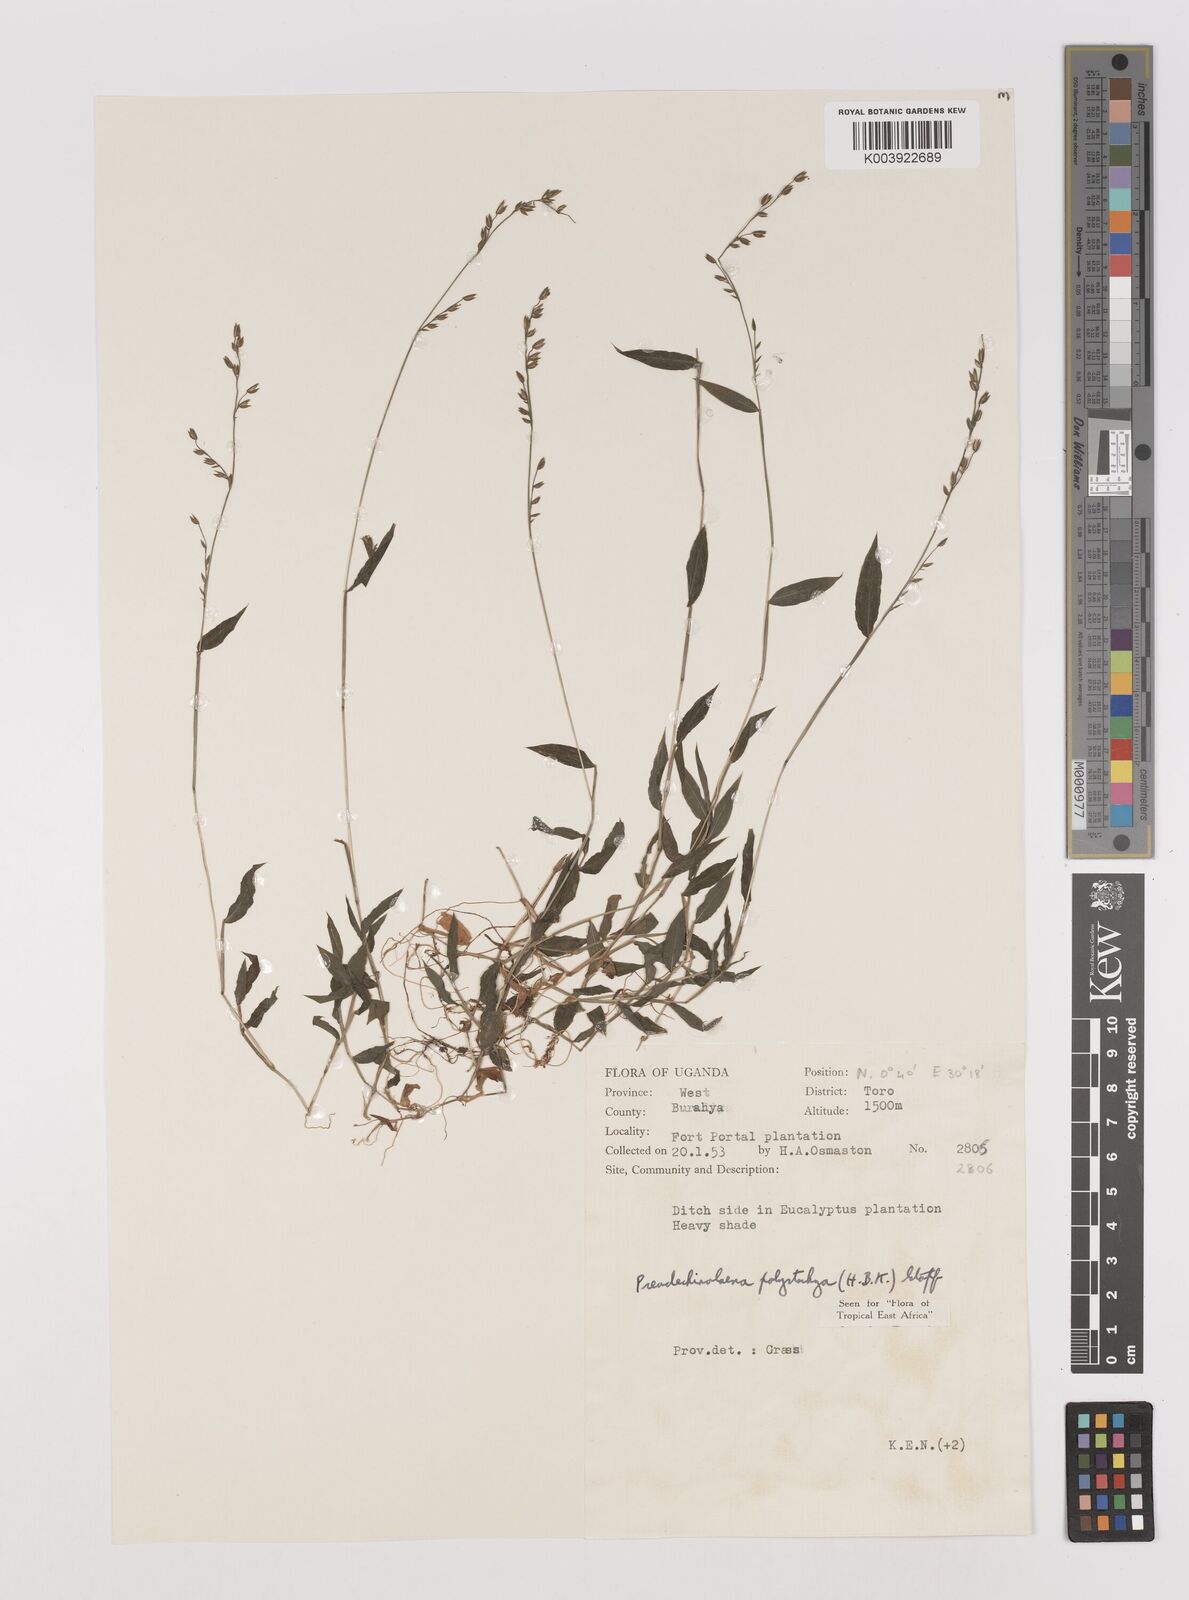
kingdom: Plantae
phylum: Tracheophyta
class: Liliopsida
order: Poales
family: Poaceae
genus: Pseudechinolaena
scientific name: Pseudechinolaena polystachya
